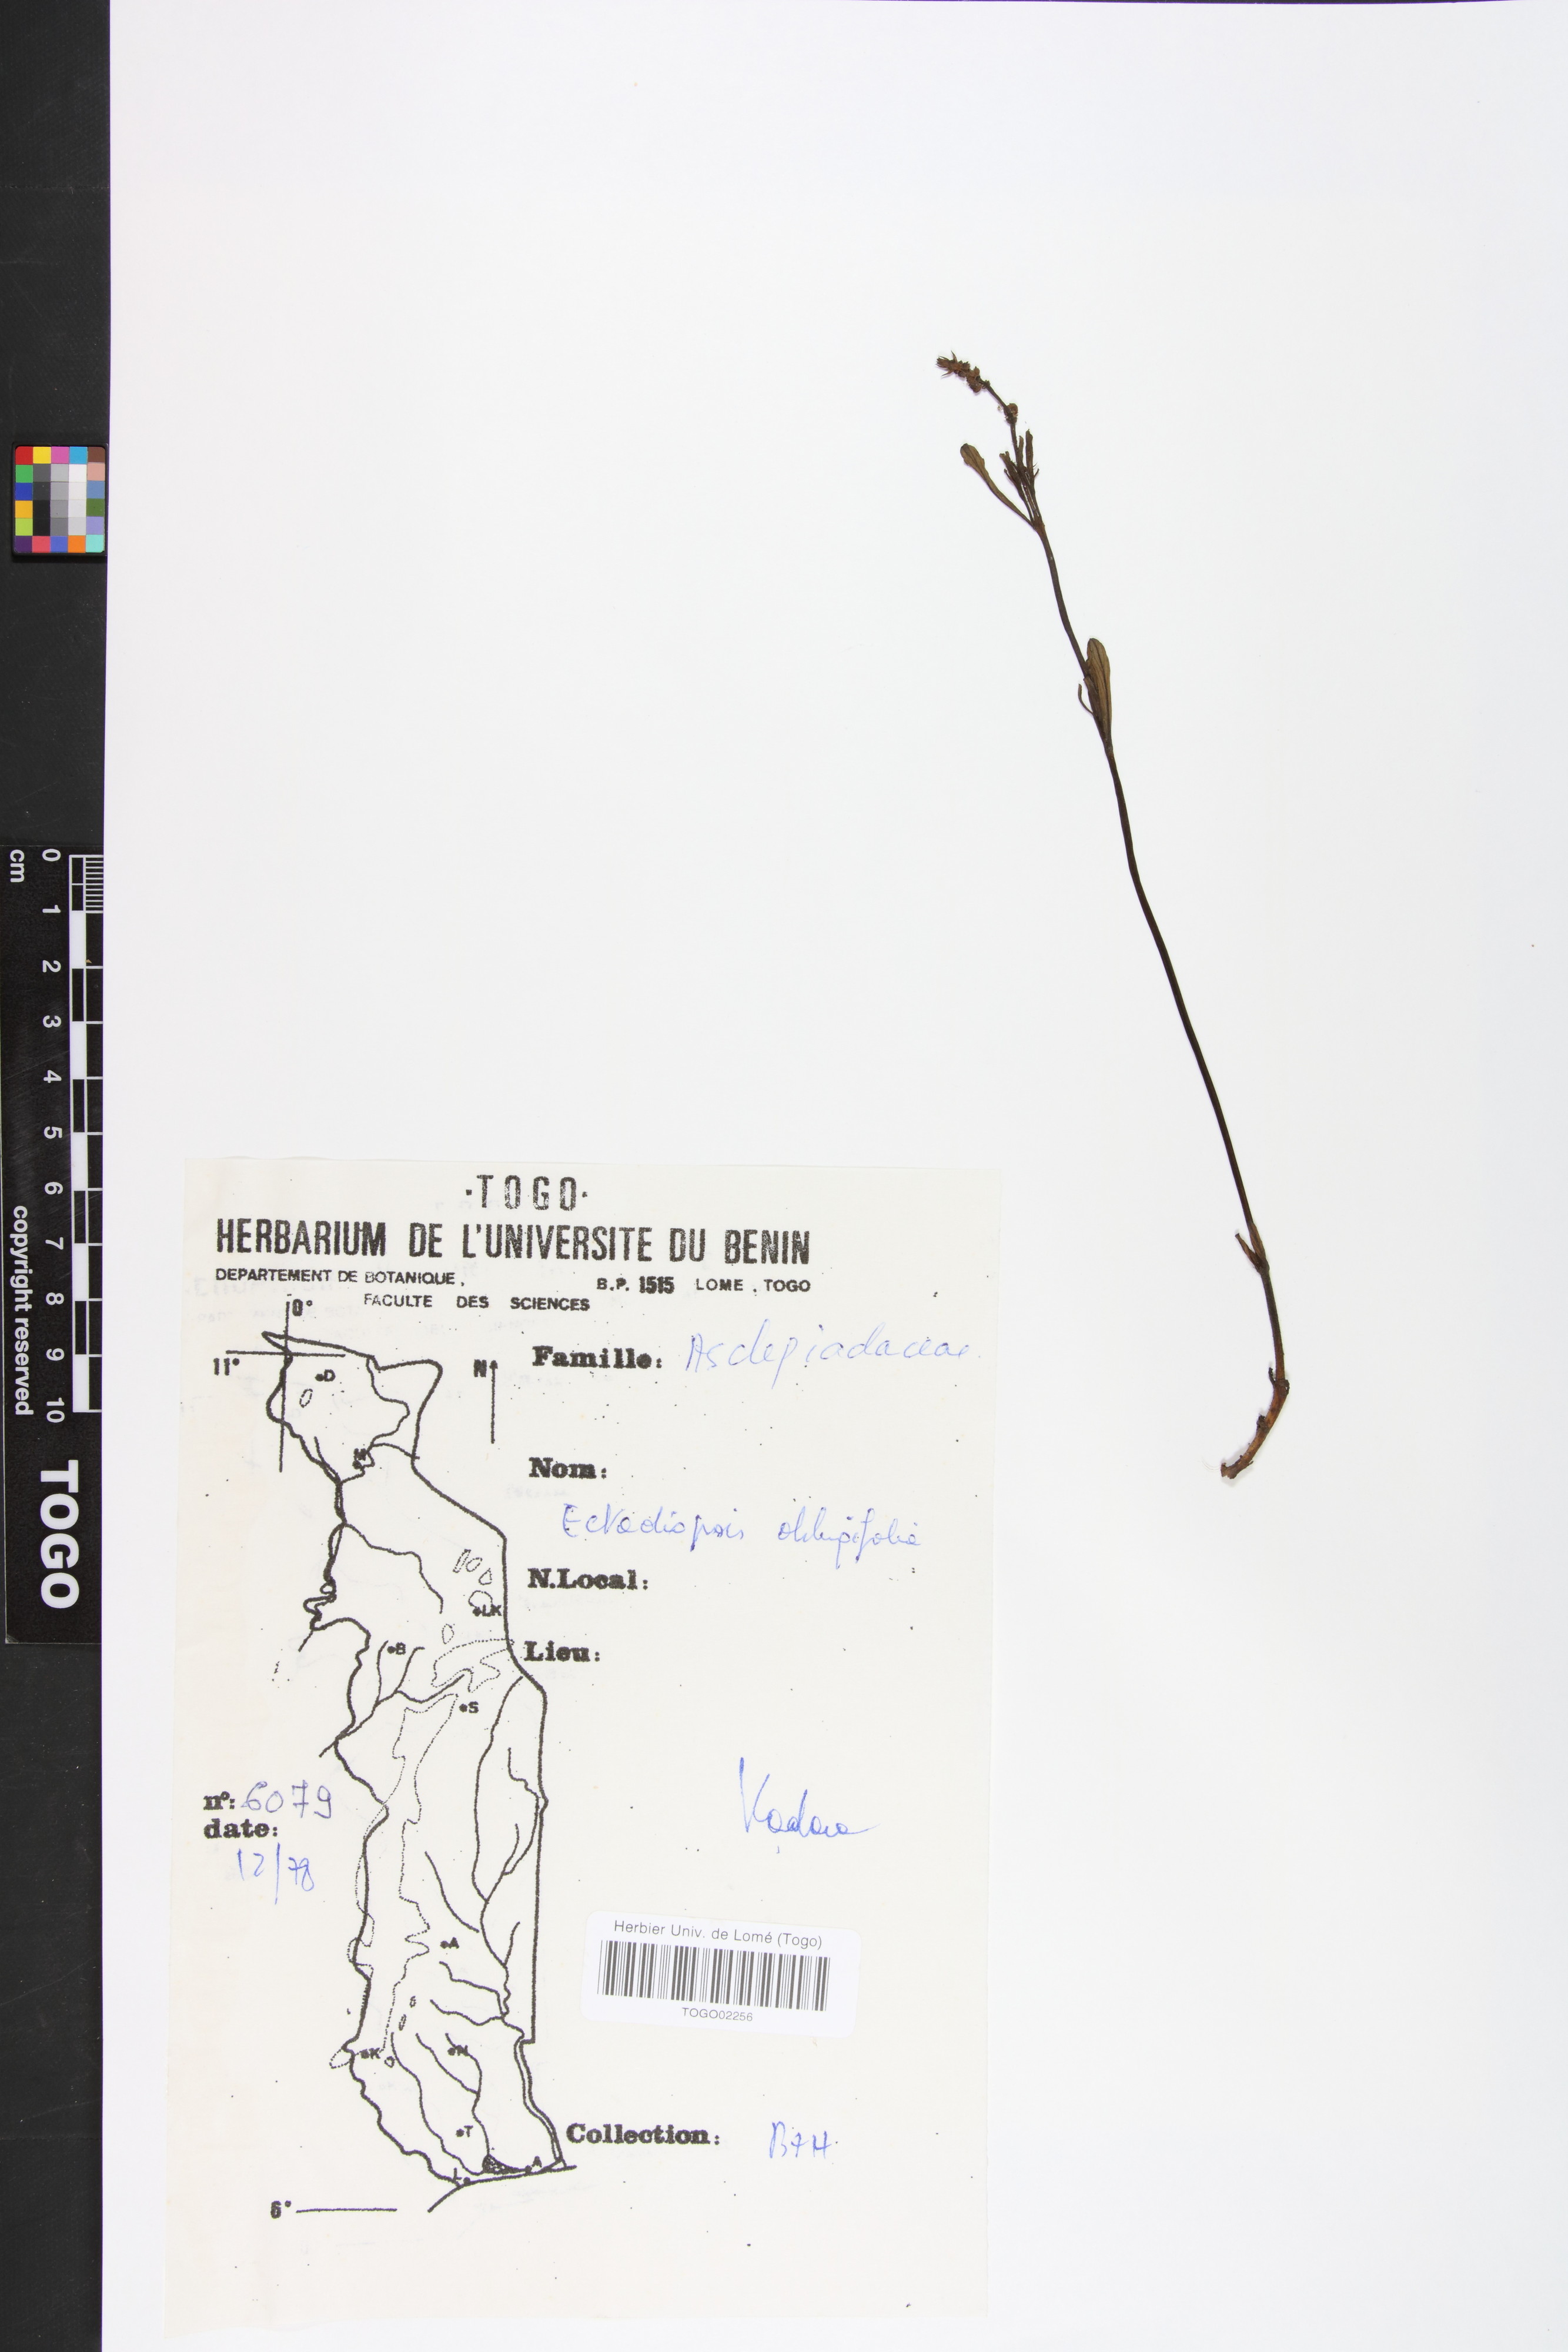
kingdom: Plantae
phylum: Tracheophyta
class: Magnoliopsida
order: Gentianales
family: Apocynaceae
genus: Cryptolepis
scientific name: Cryptolepis oblongifolia
